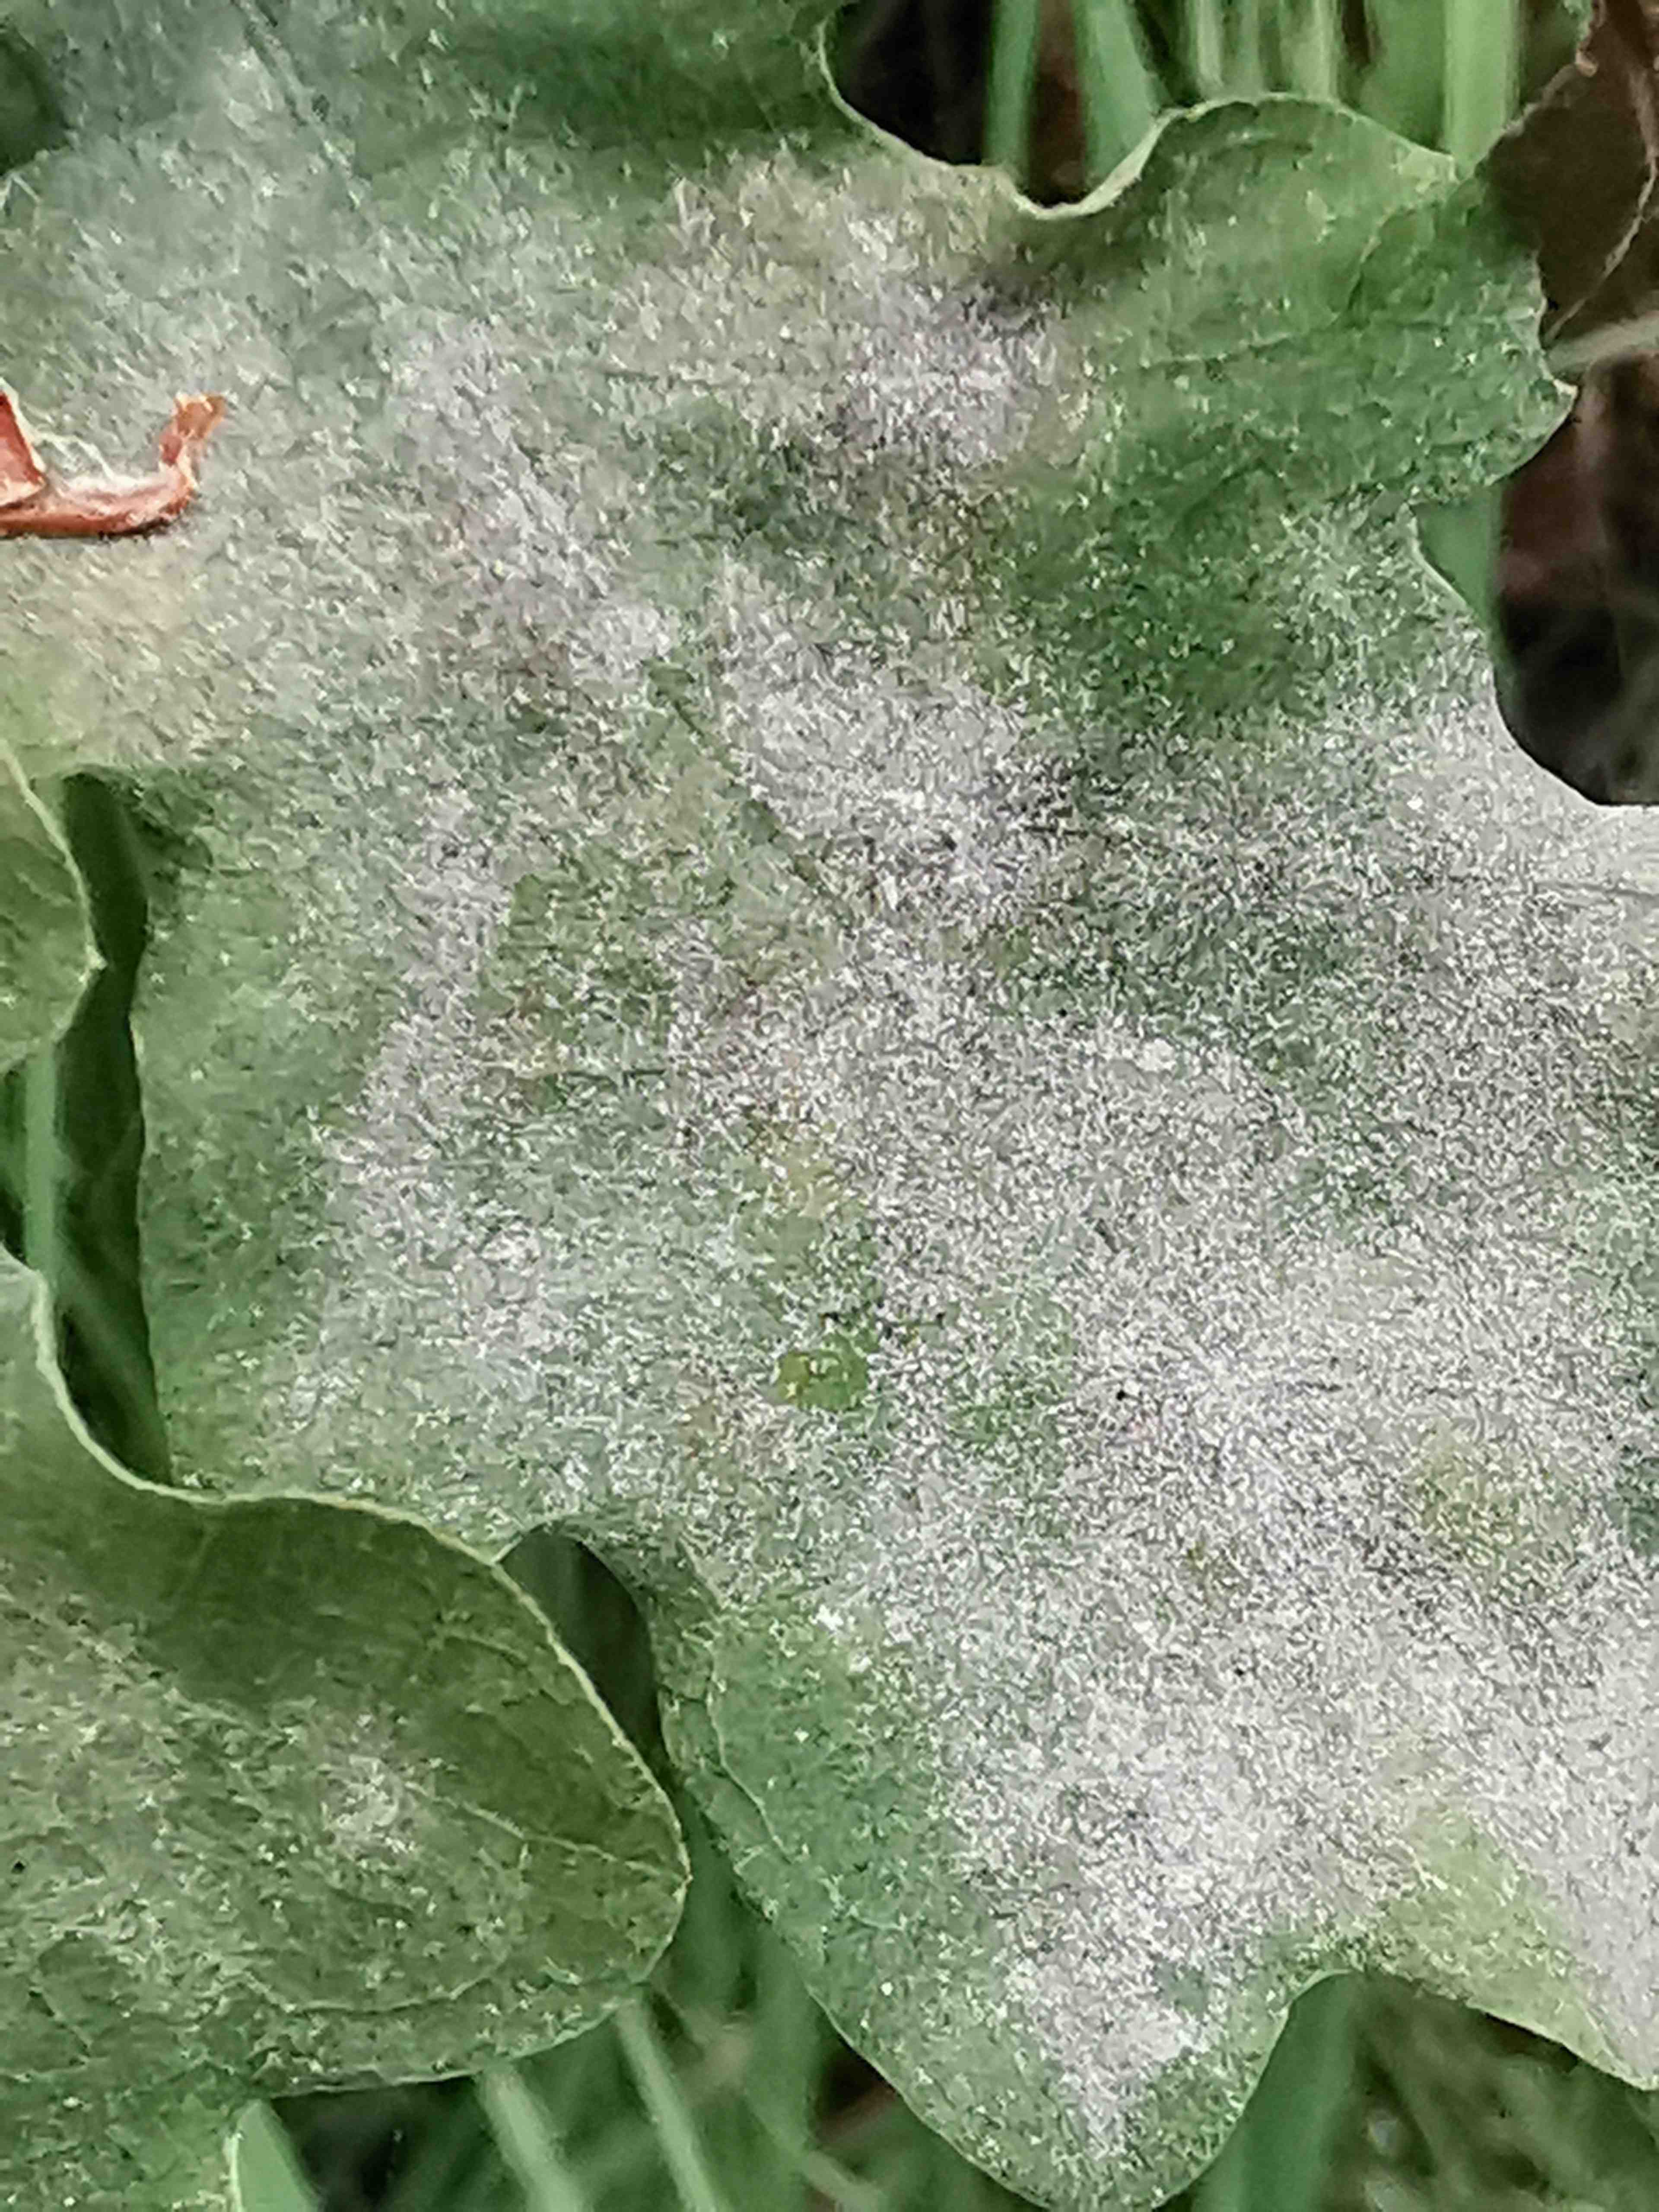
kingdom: Fungi
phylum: Ascomycota
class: Leotiomycetes
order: Helotiales
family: Erysiphaceae
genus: Erysiphe
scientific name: Erysiphe alphitoides
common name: ege-meldug
